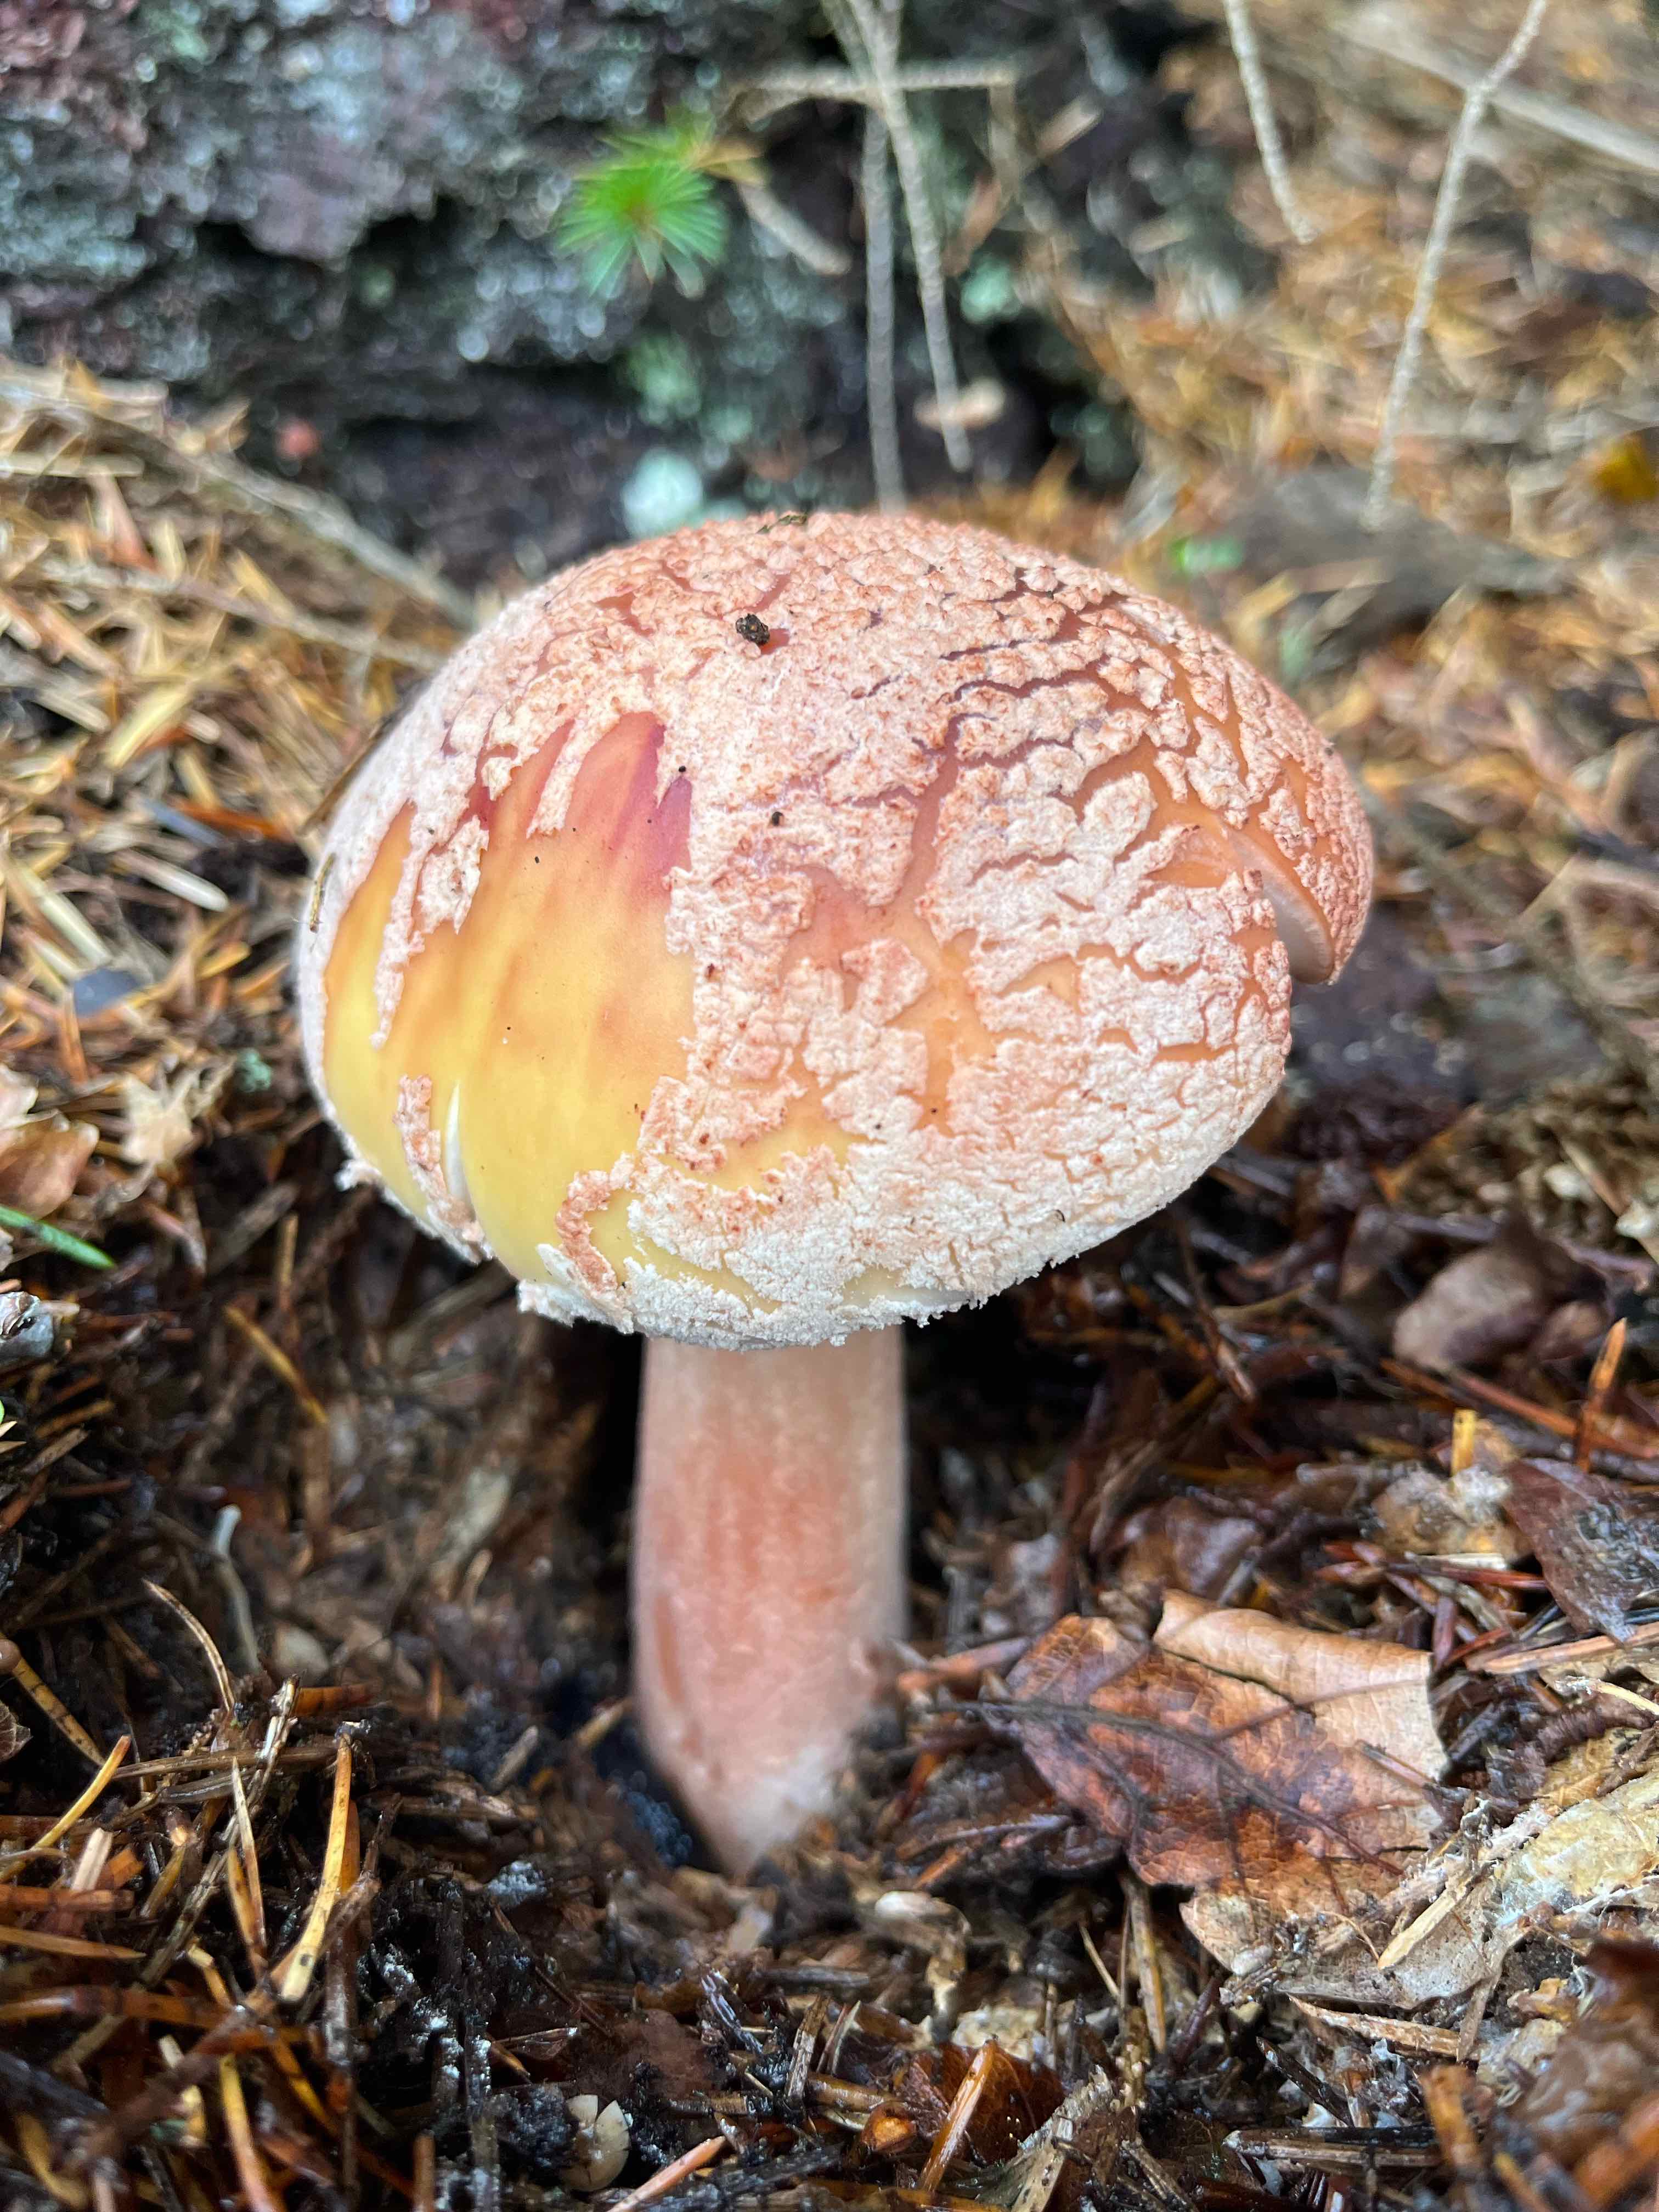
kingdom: Fungi
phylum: Basidiomycota
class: Agaricomycetes
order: Agaricales
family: Amanitaceae
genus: Amanita
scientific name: Amanita rubescens
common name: rødmende fluesvamp
